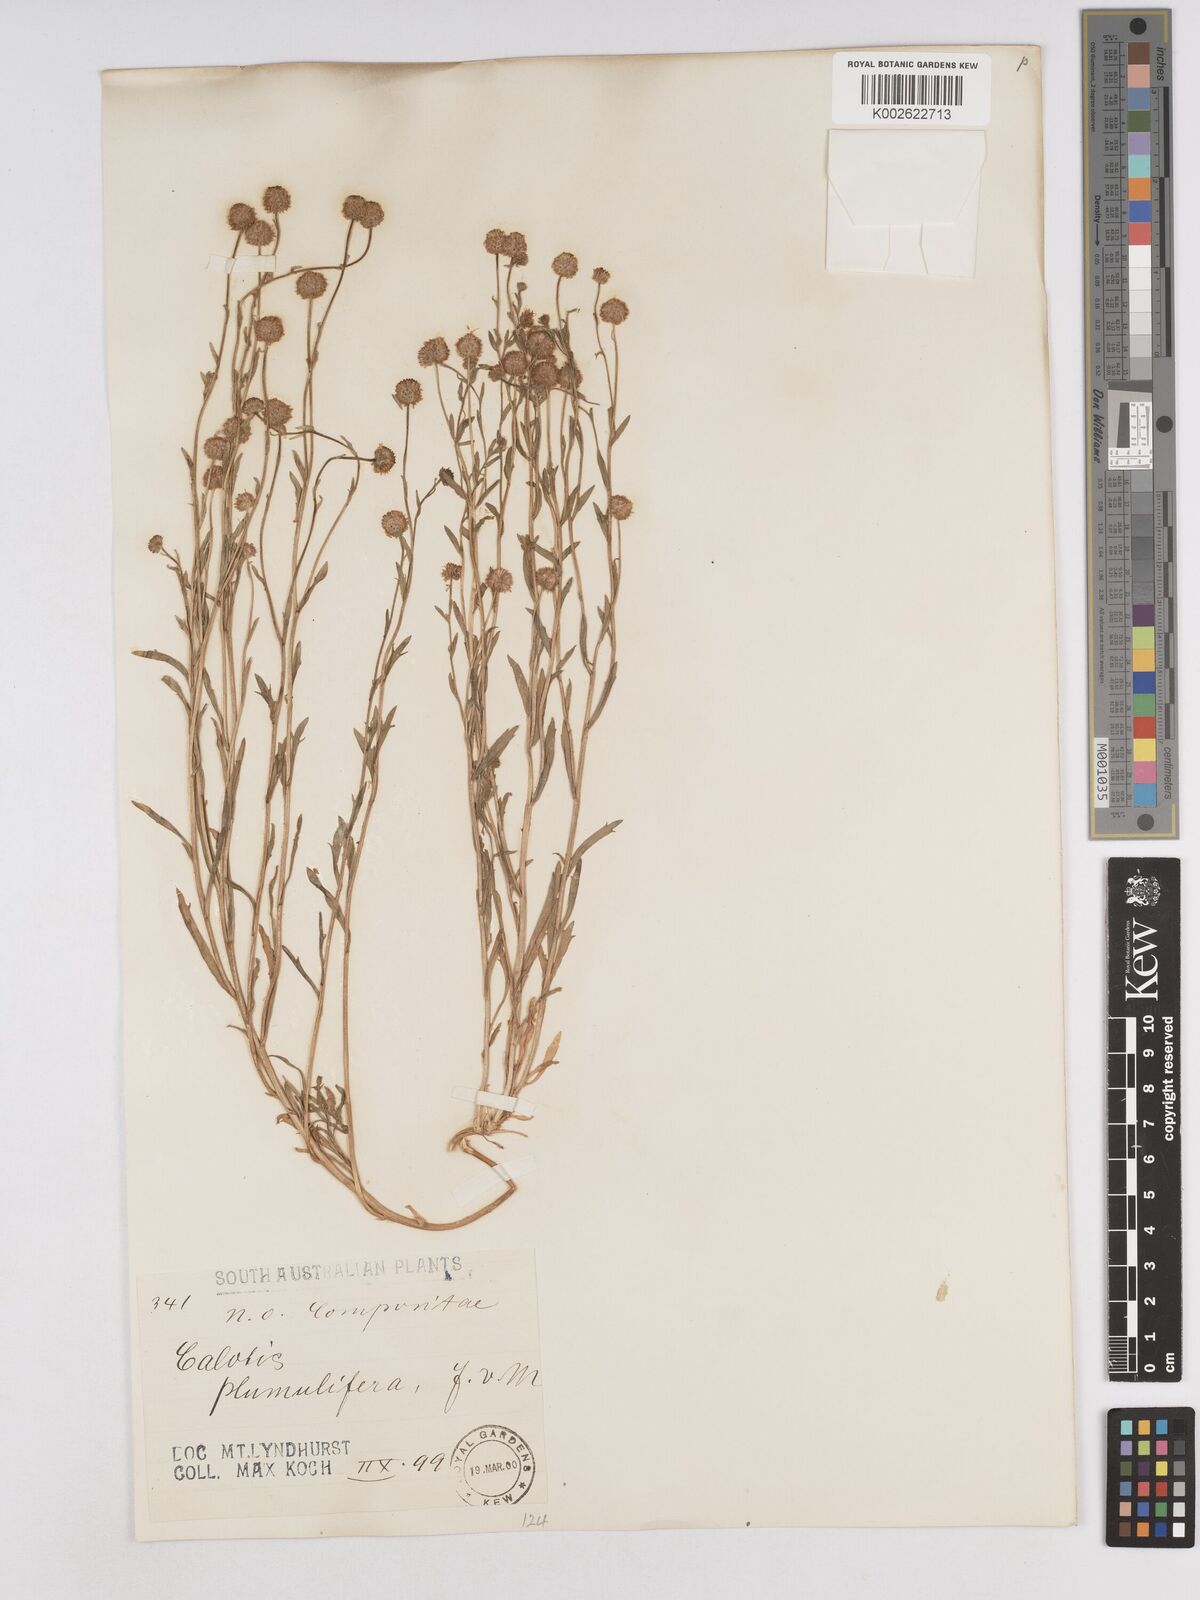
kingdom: Plantae
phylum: Tracheophyta
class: Magnoliopsida
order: Asterales
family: Asteraceae
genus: Calotis
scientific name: Calotis multicaulis
